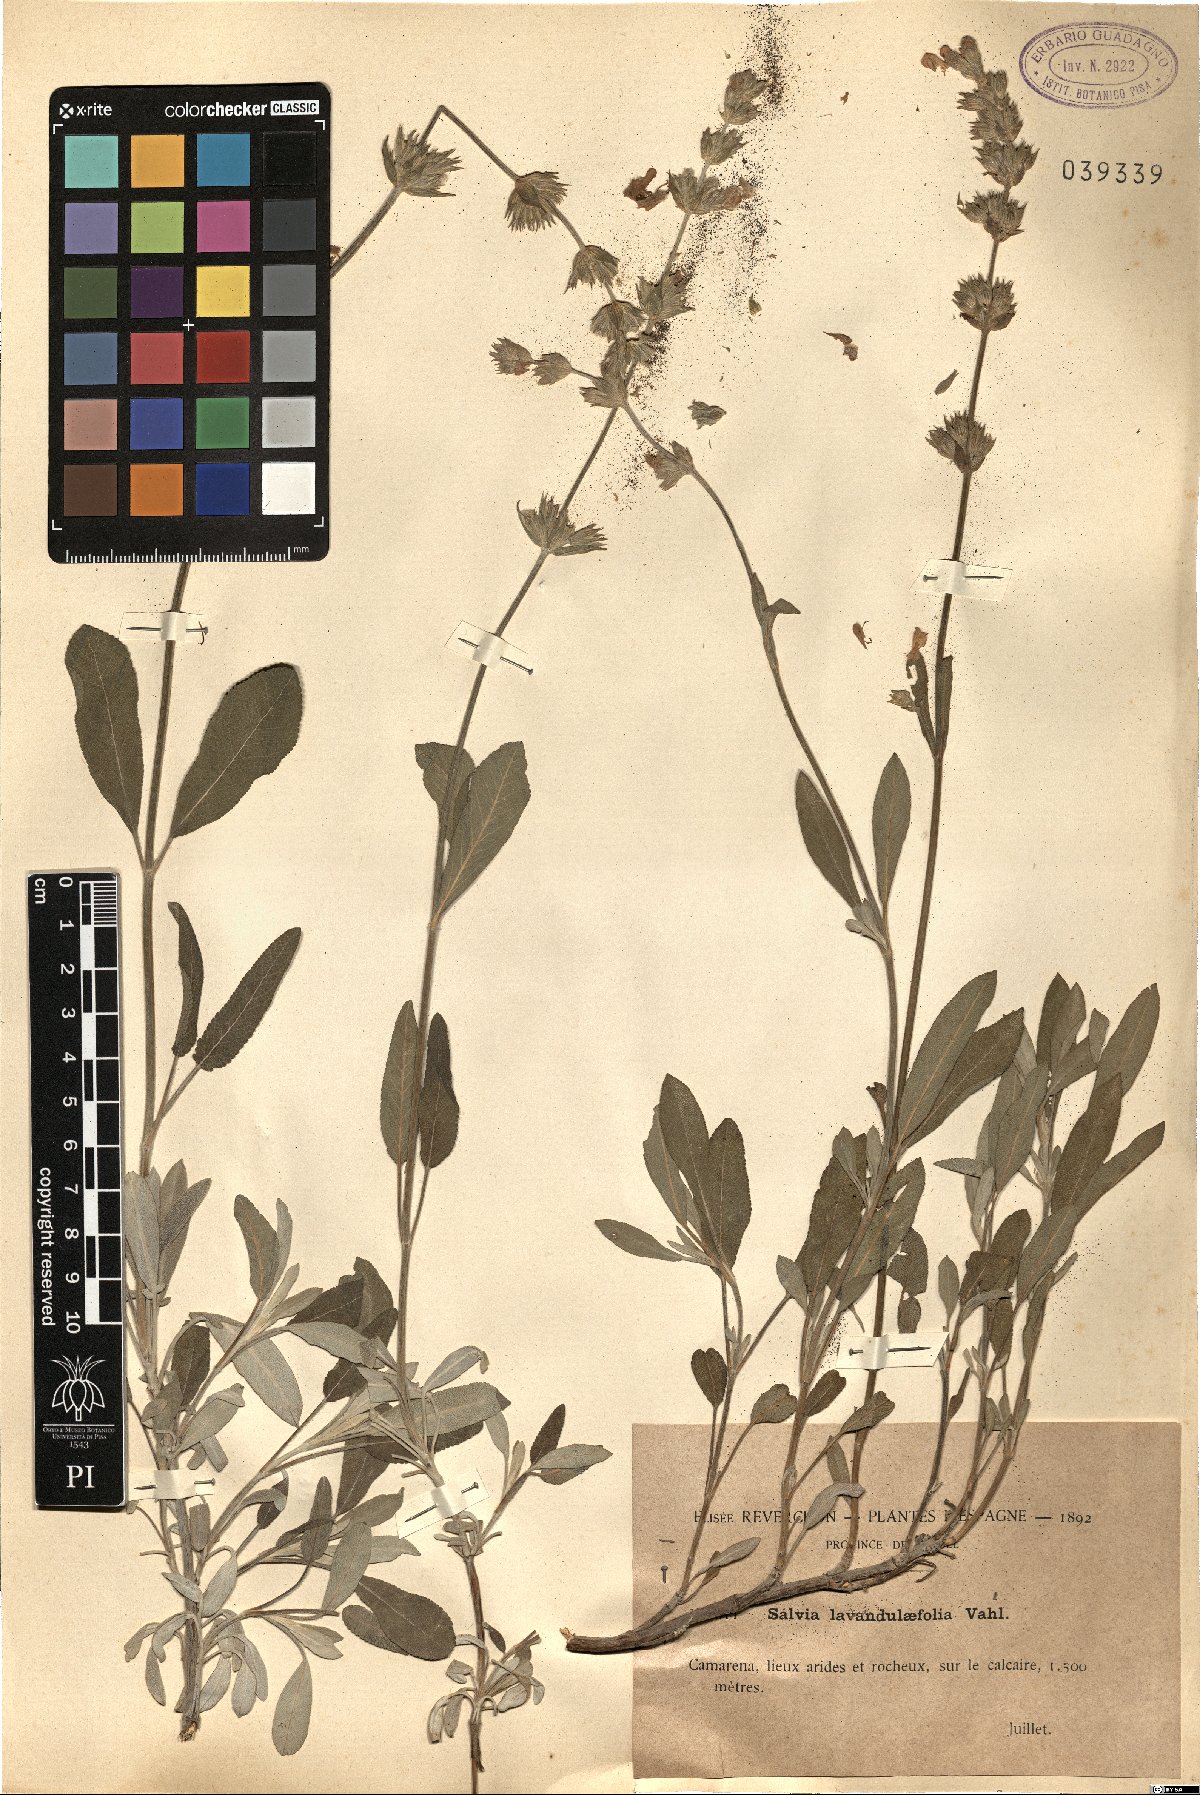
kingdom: Plantae
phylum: Tracheophyta
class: Magnoliopsida
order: Lamiales
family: Lamiaceae
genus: Salvia
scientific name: Salvia officinalis
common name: Sage
